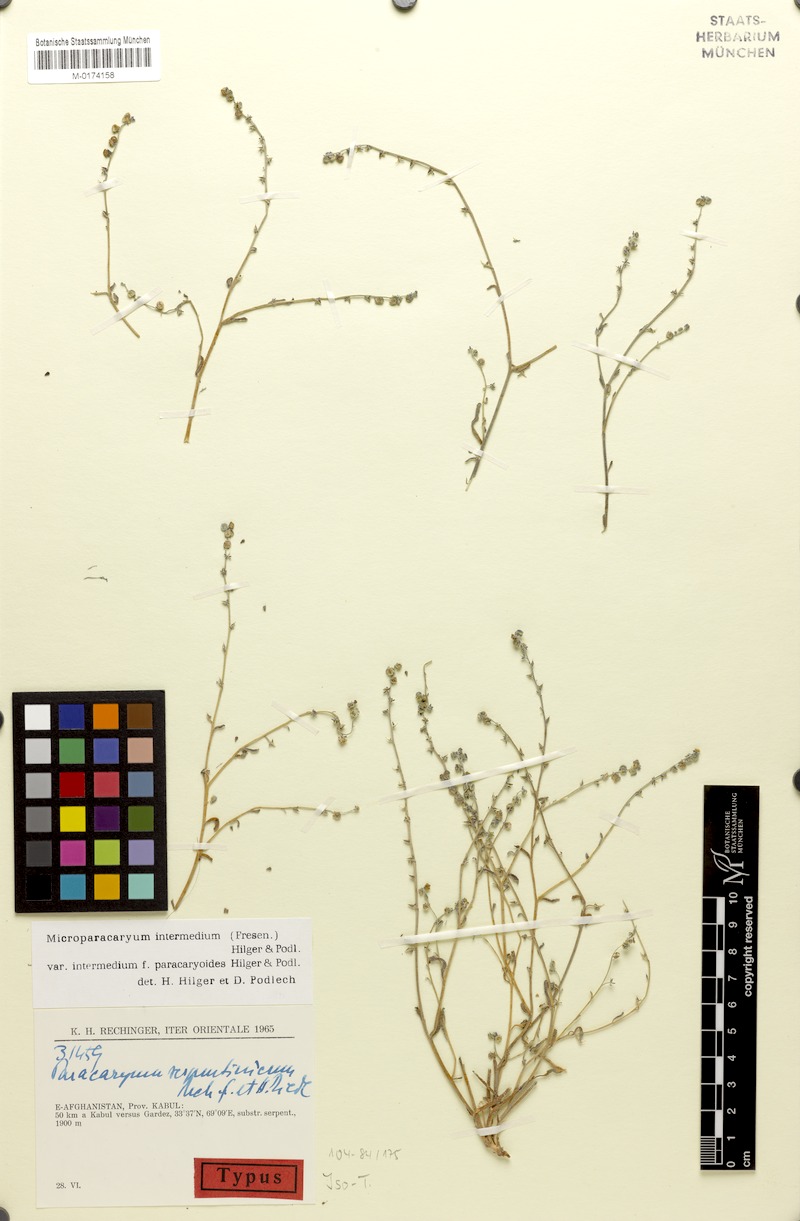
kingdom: Plantae
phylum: Tracheophyta
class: Magnoliopsida
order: Boraginales
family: Boraginaceae
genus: Microparacaryum
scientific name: Microparacaryum intermedium
